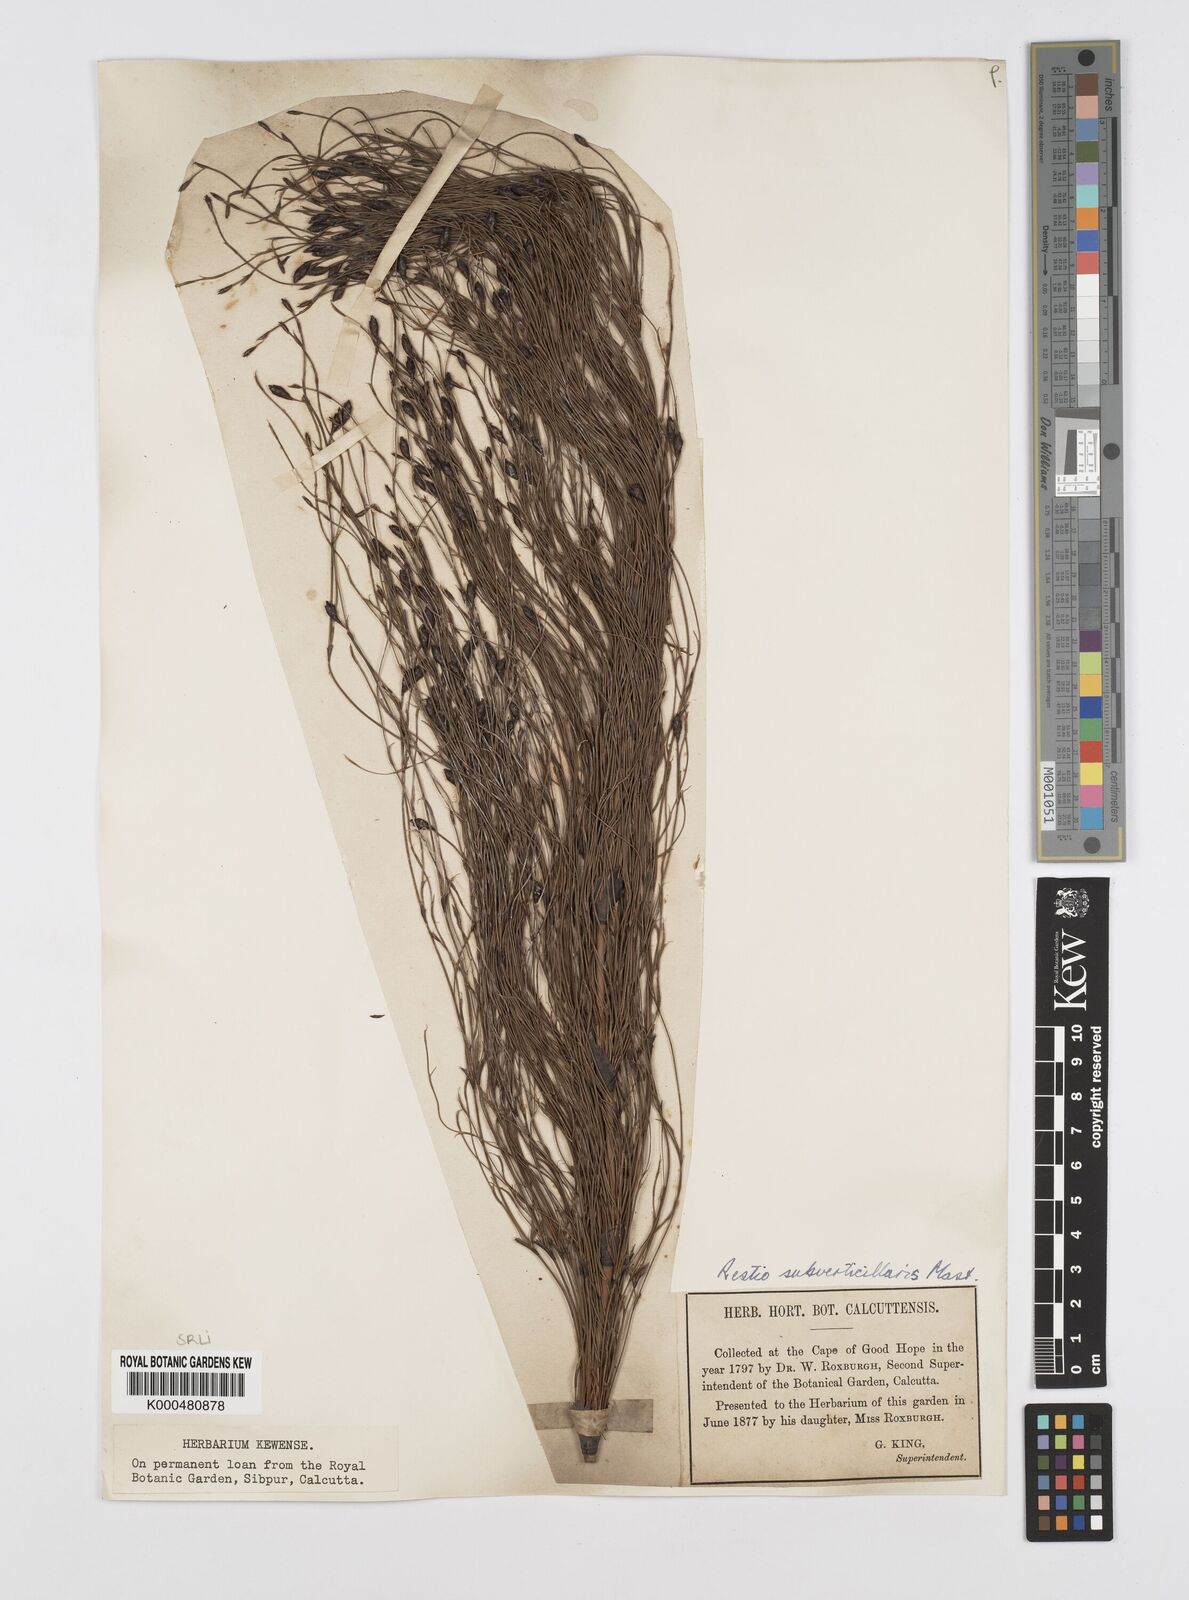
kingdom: Plantae
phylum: Tracheophyta
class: Liliopsida
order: Poales
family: Restionaceae
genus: Restio
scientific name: Restio subverticillatus
